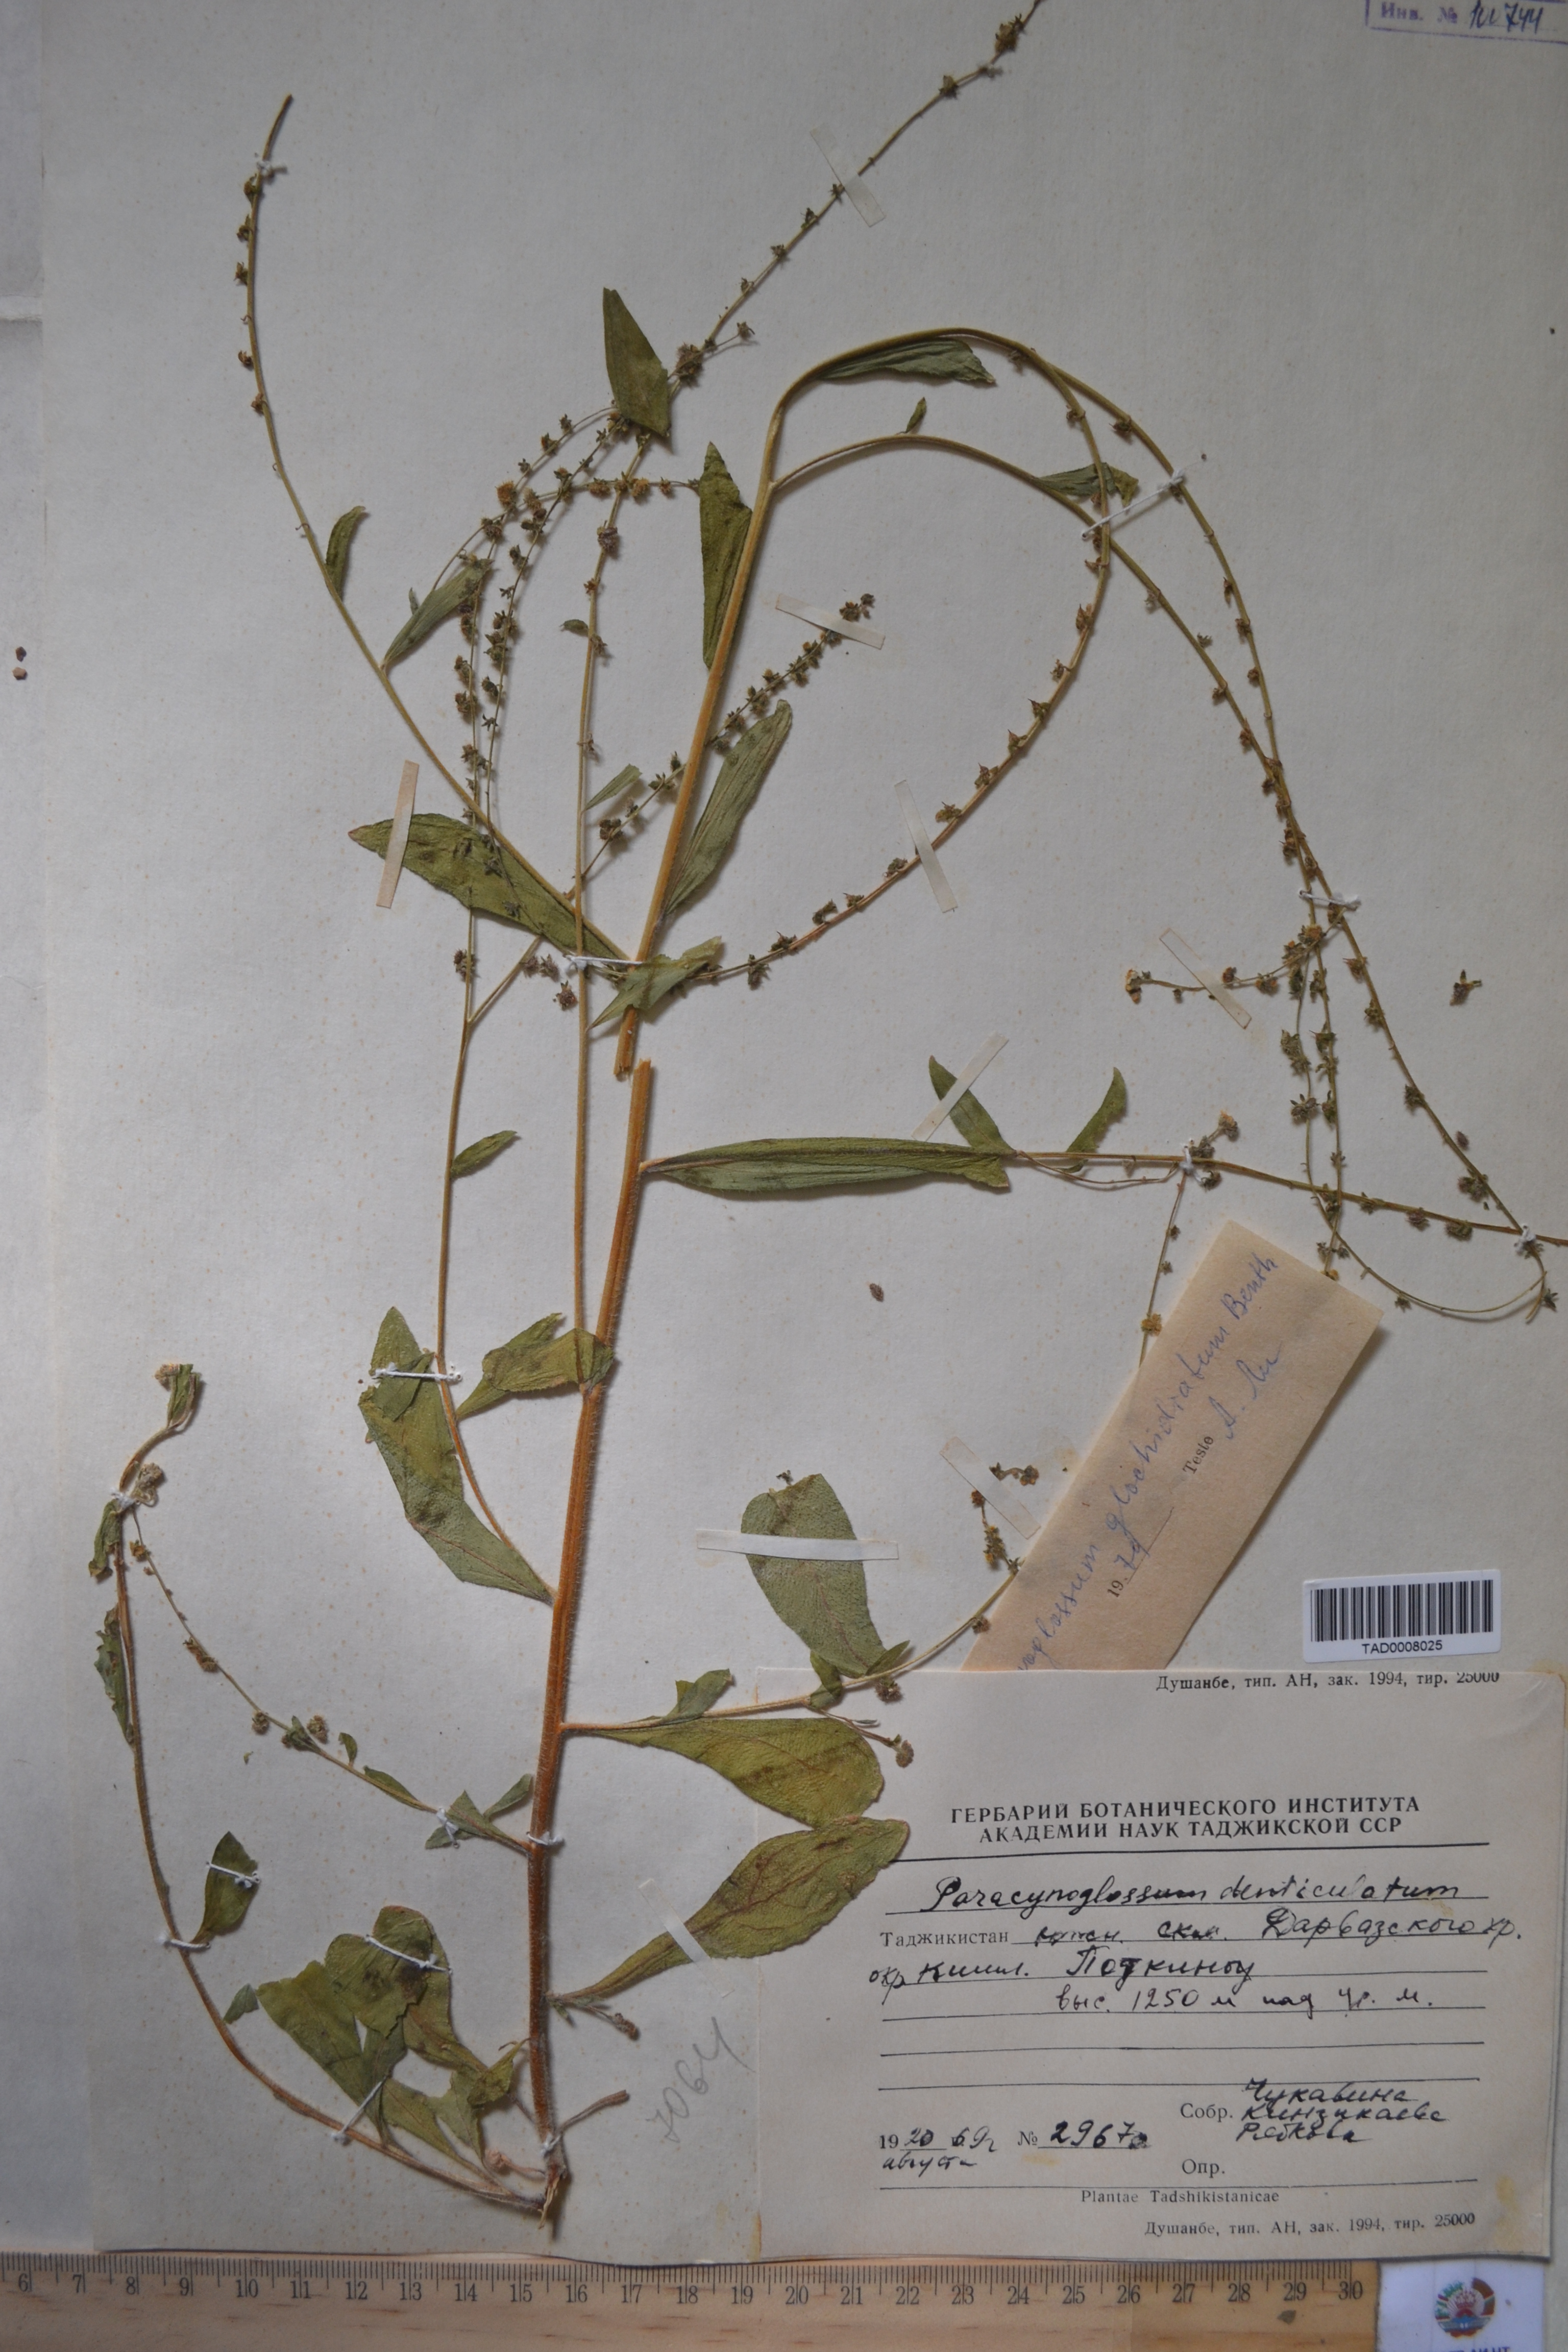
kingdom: Plantae
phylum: Tracheophyta
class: Magnoliopsida
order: Boraginales
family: Boraginaceae
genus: Paracynoglossum
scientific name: Paracynoglossum glochidiatum
